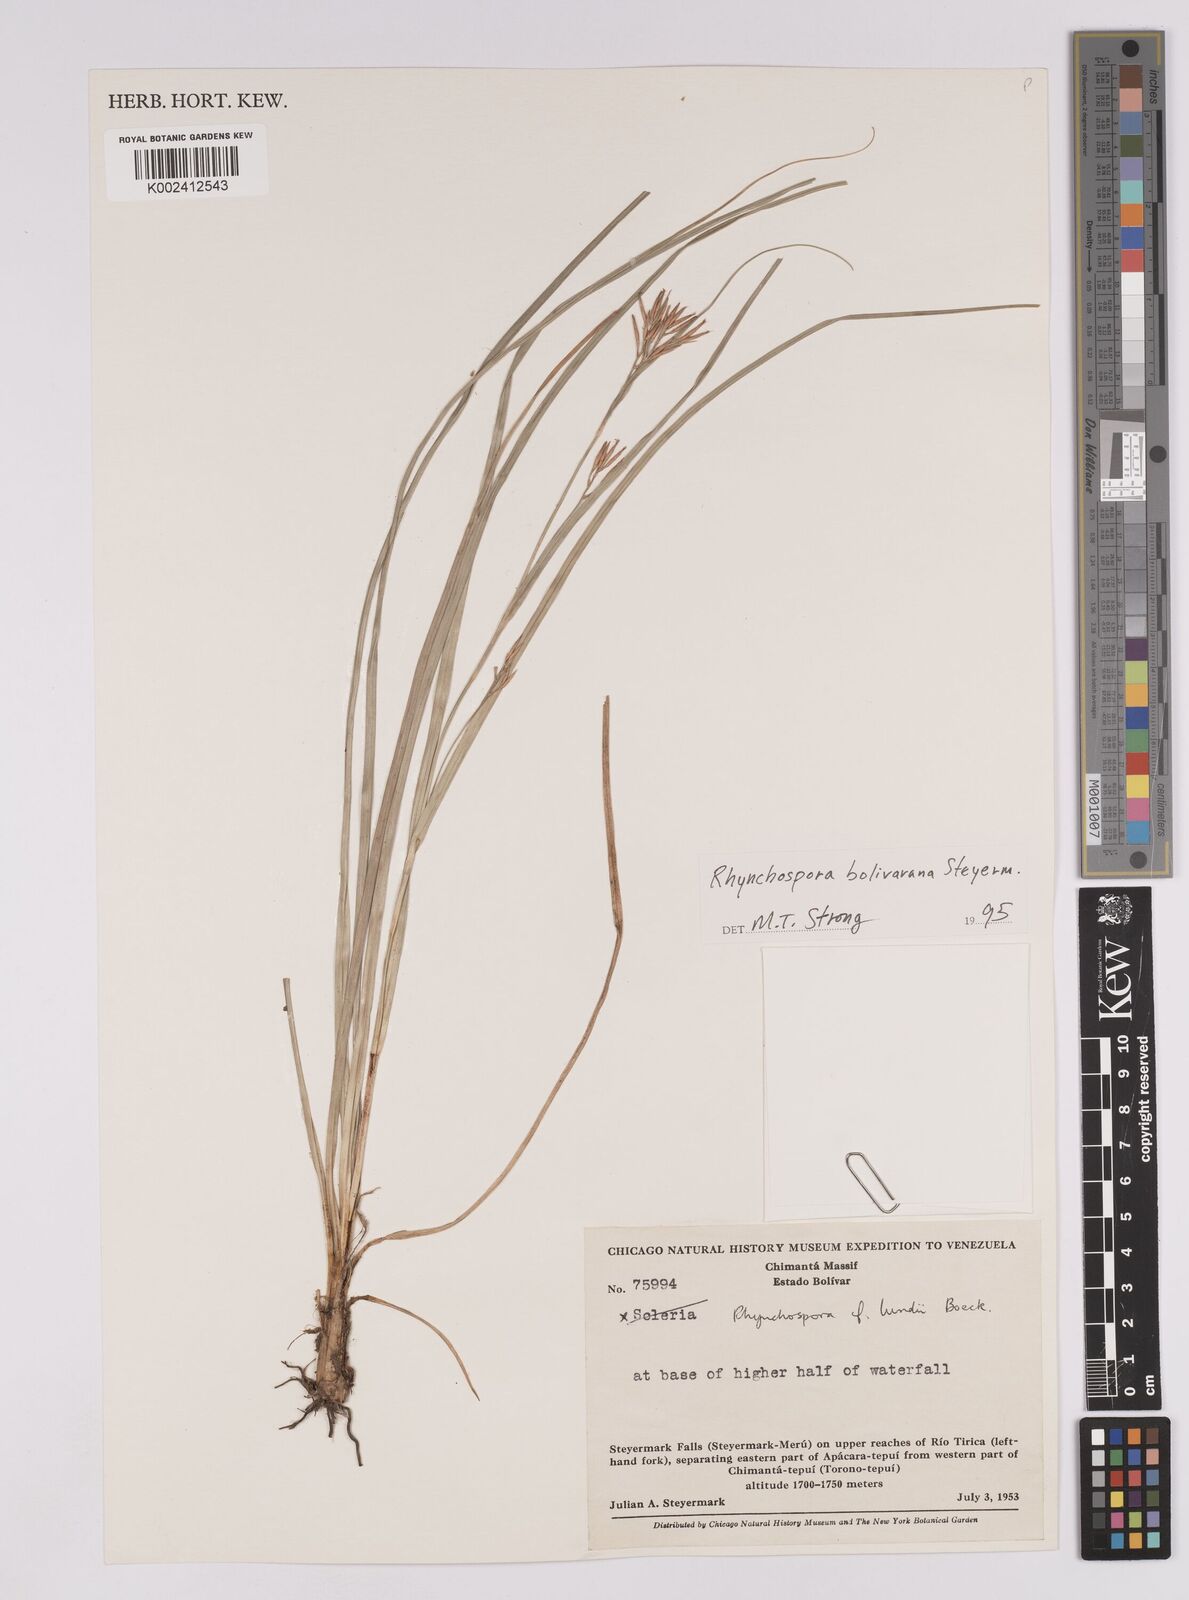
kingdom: Plantae
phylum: Tracheophyta
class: Liliopsida
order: Poales
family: Cyperaceae
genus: Rhynchospora
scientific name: Rhynchospora bolivarana
